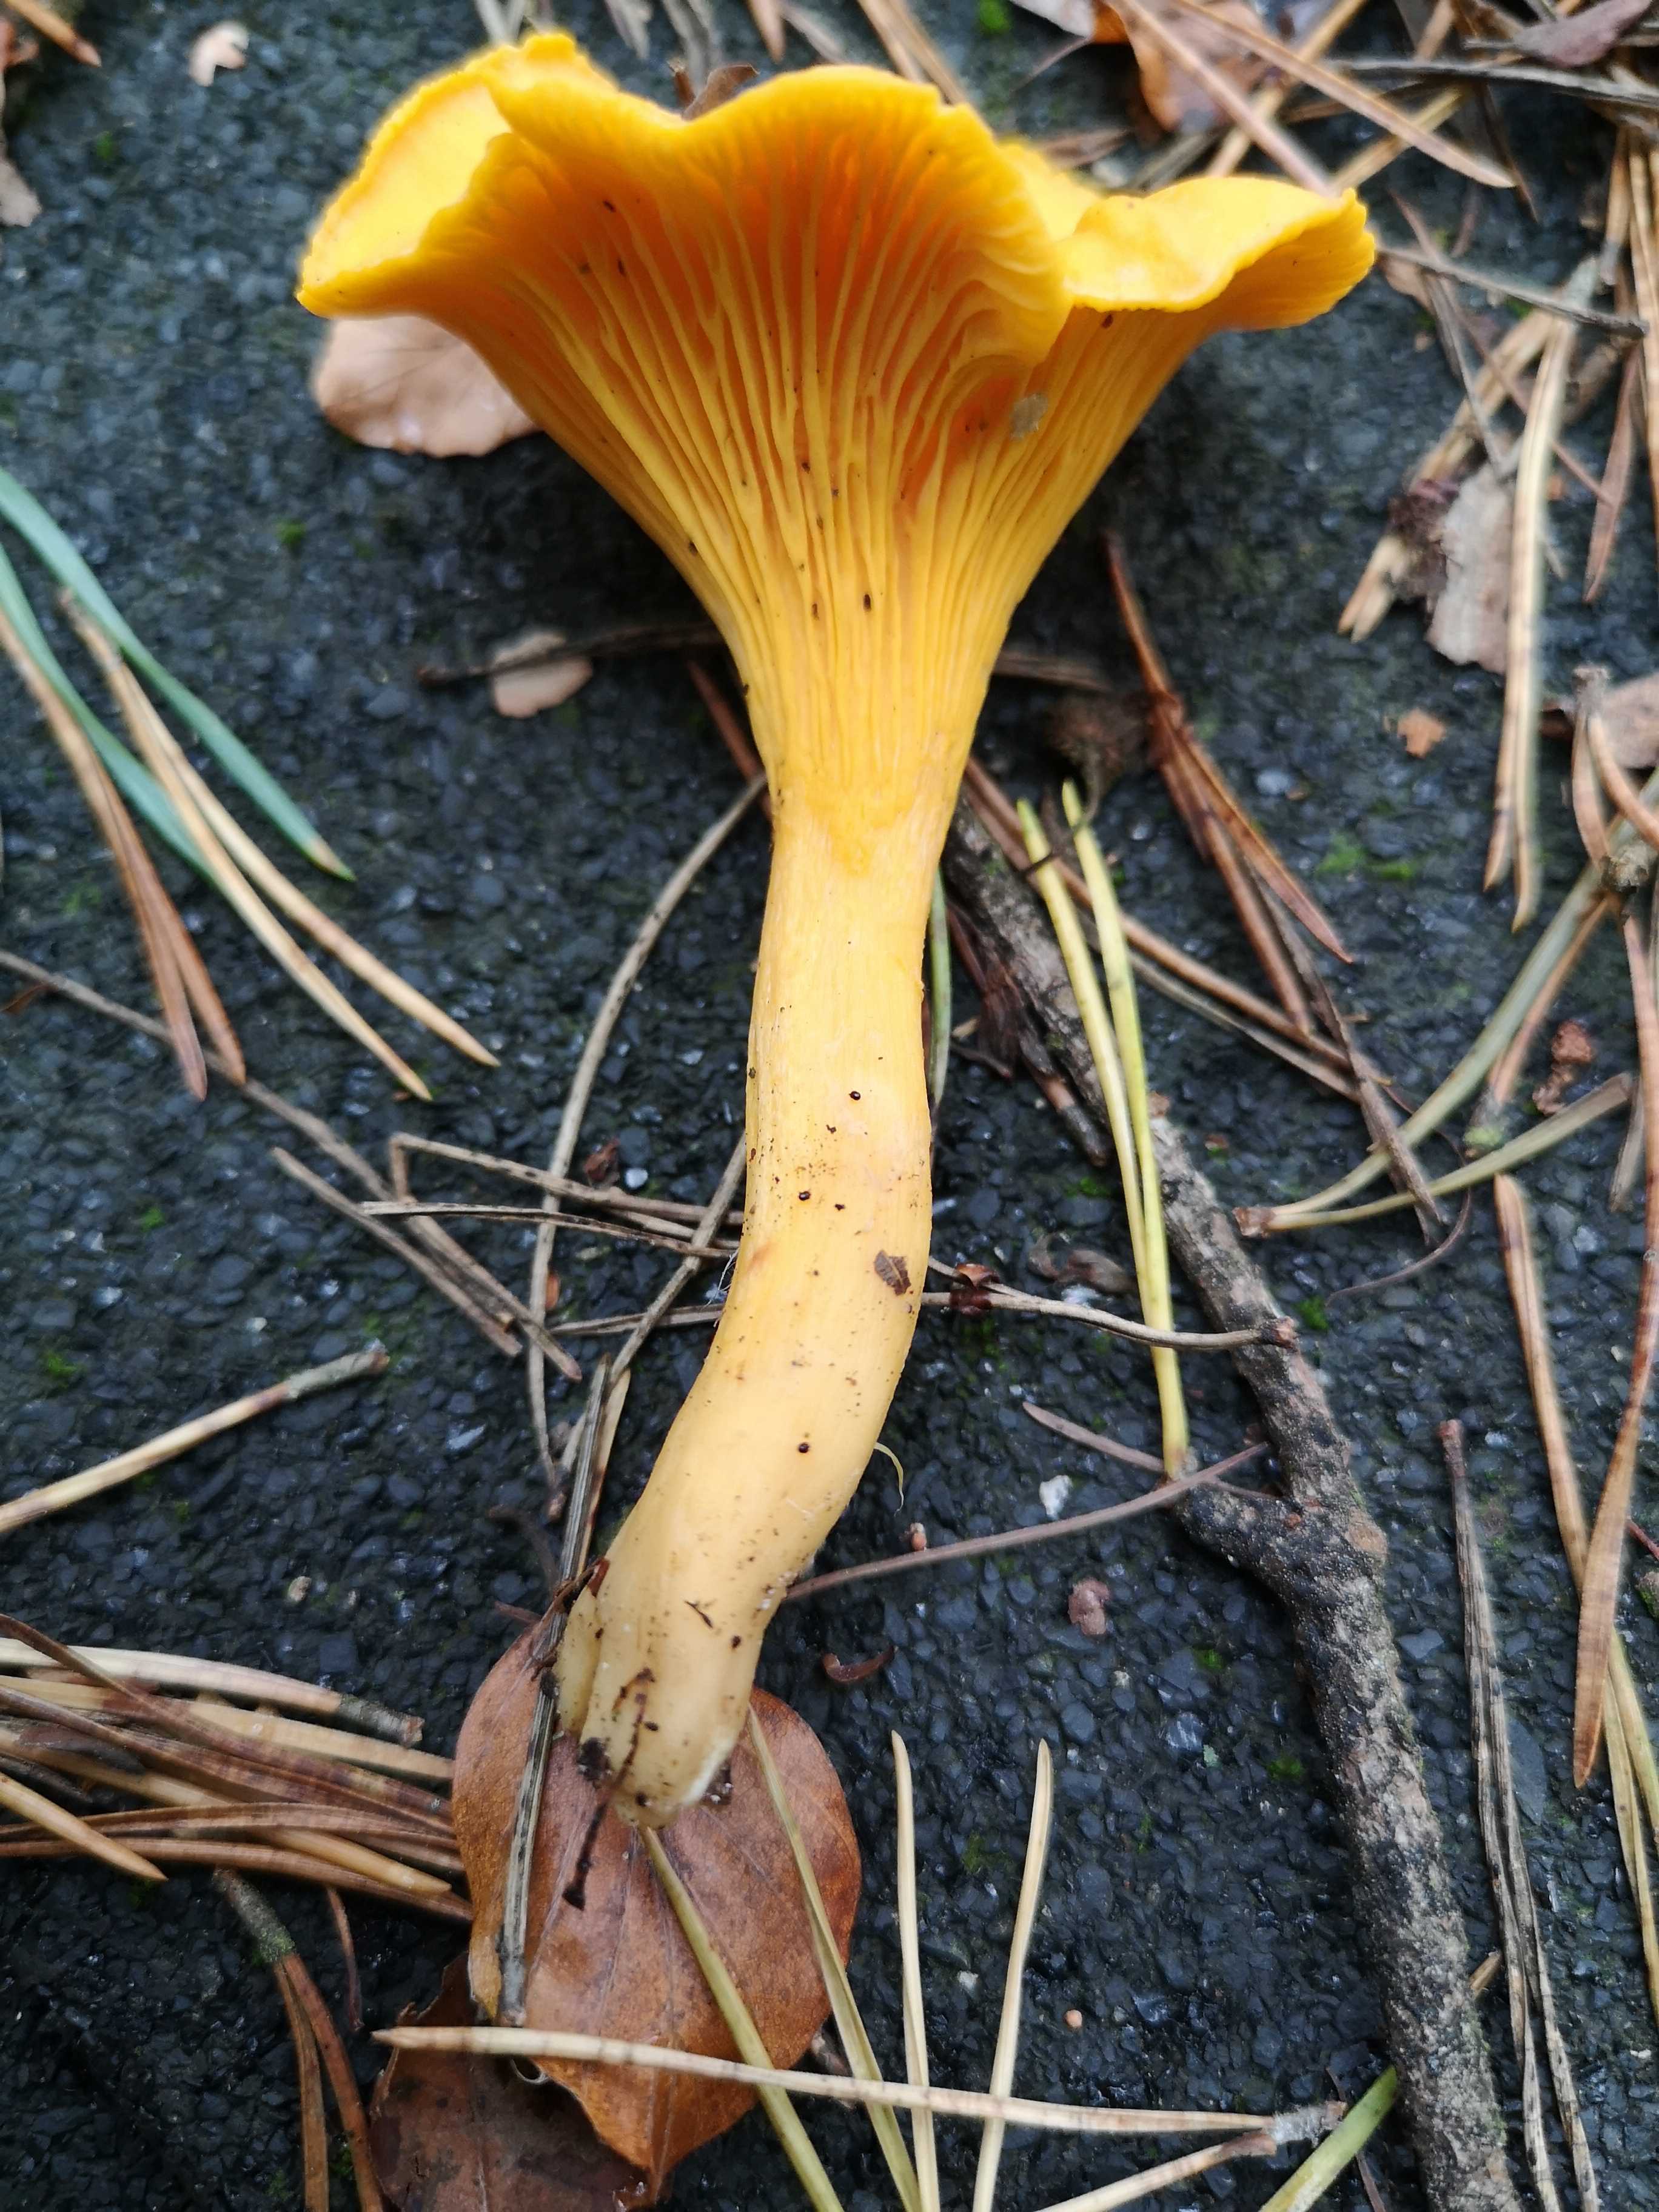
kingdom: Fungi
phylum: Basidiomycota
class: Agaricomycetes
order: Cantharellales
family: Hydnaceae
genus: Cantharellus
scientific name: Cantharellus cibarius
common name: almindelig kantarel
